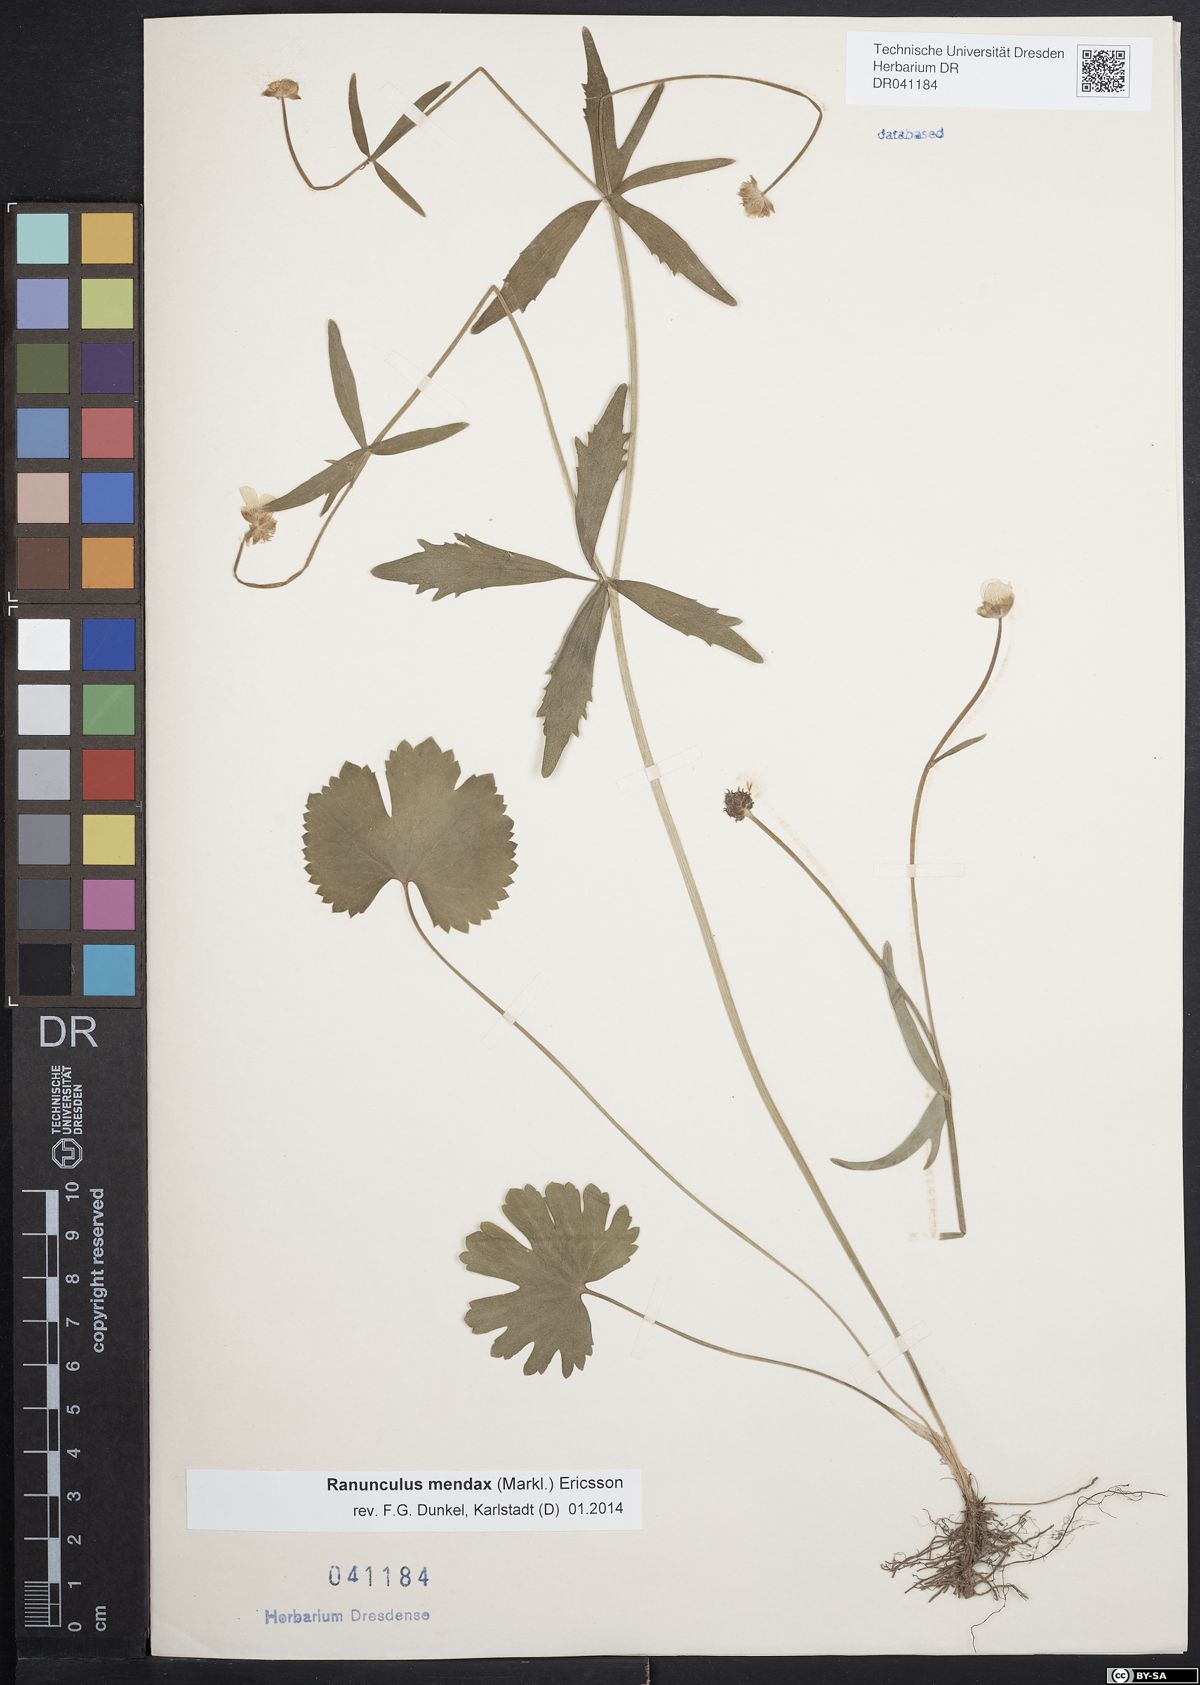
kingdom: Plantae
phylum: Tracheophyta
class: Magnoliopsida
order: Ranunculales
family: Ranunculaceae
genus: Ranunculus
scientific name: Ranunculus mendax
